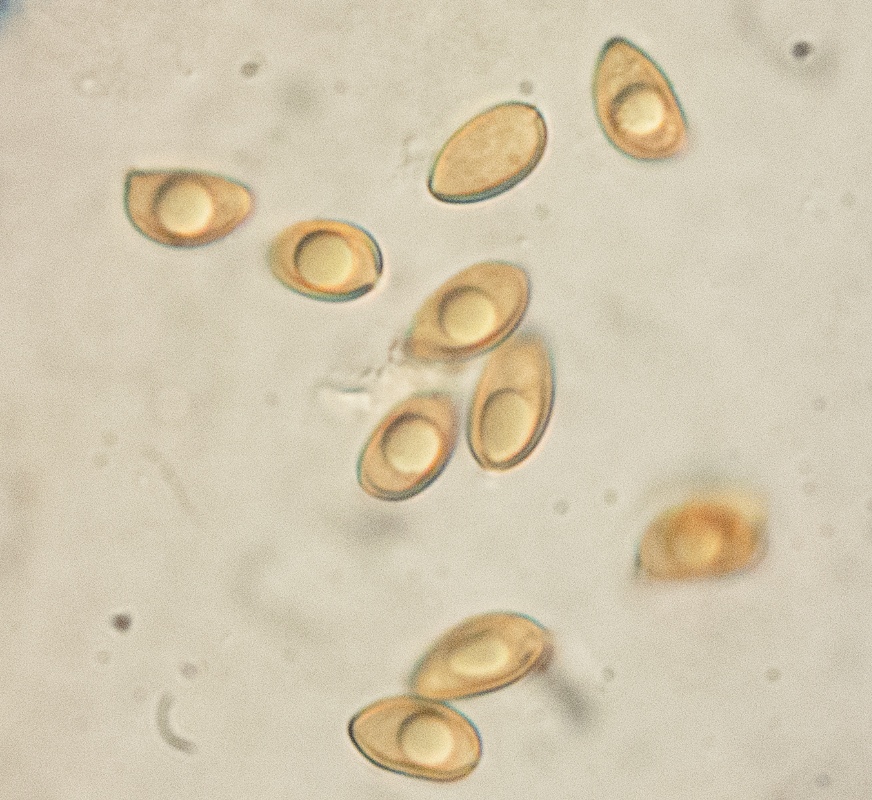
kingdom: Fungi
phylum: Basidiomycota
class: Agaricomycetes
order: Agaricales
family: Inocybaceae
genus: Inocybe
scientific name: Inocybe
